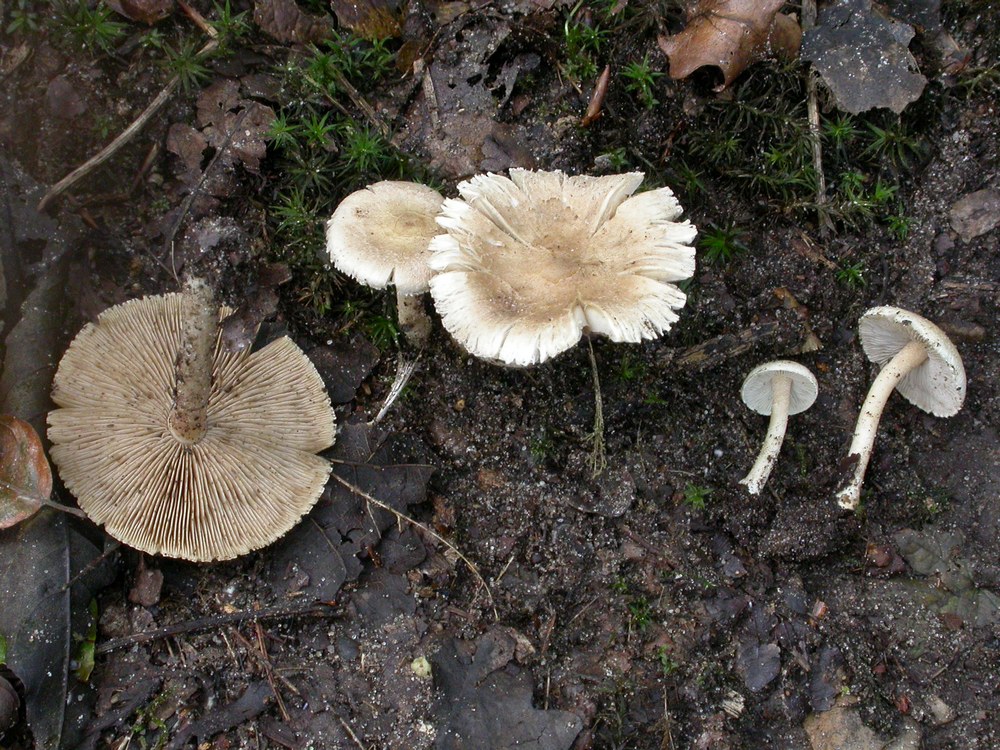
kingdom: Fungi
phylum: Basidiomycota
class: Agaricomycetes
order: Agaricales
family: Inocybaceae
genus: Inocybe
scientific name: Inocybe sindonia
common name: bleg trævlhat
